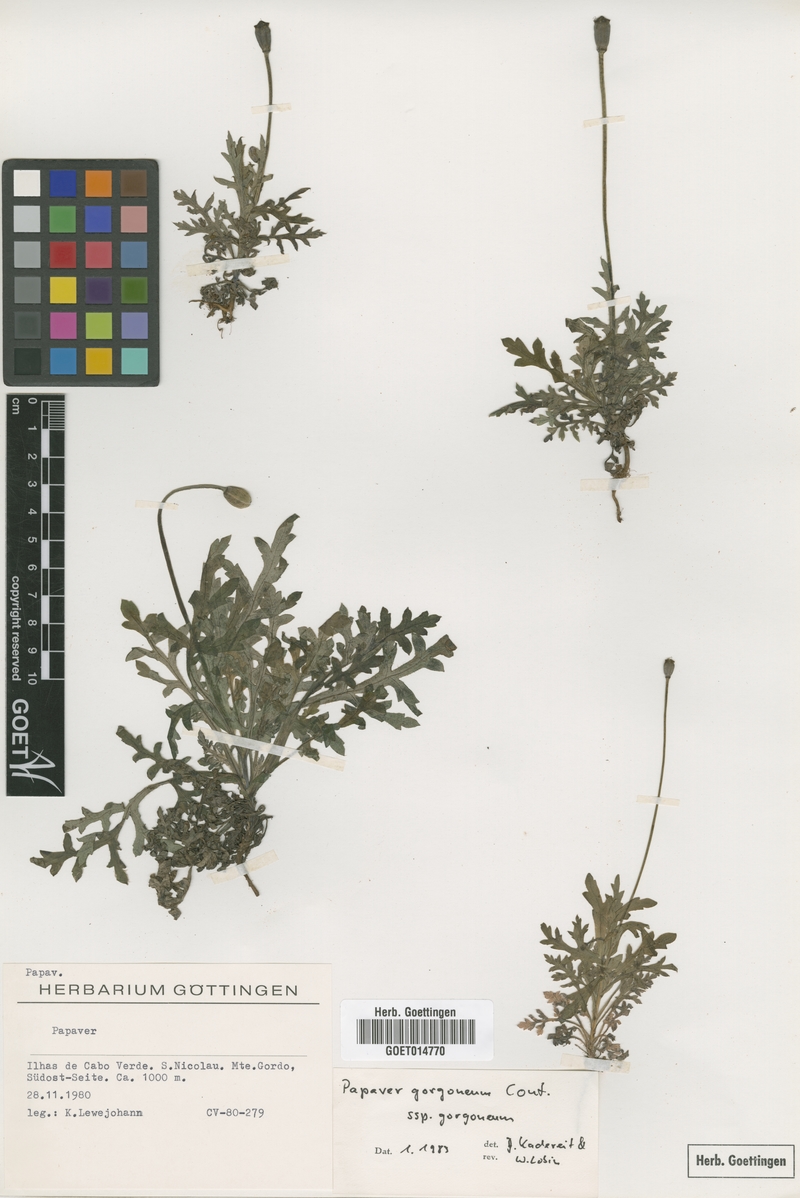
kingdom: Plantae
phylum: Tracheophyta
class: Magnoliopsida
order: Ranunculales
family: Papaveraceae
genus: Papaver
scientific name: Papaver gorgoneum
